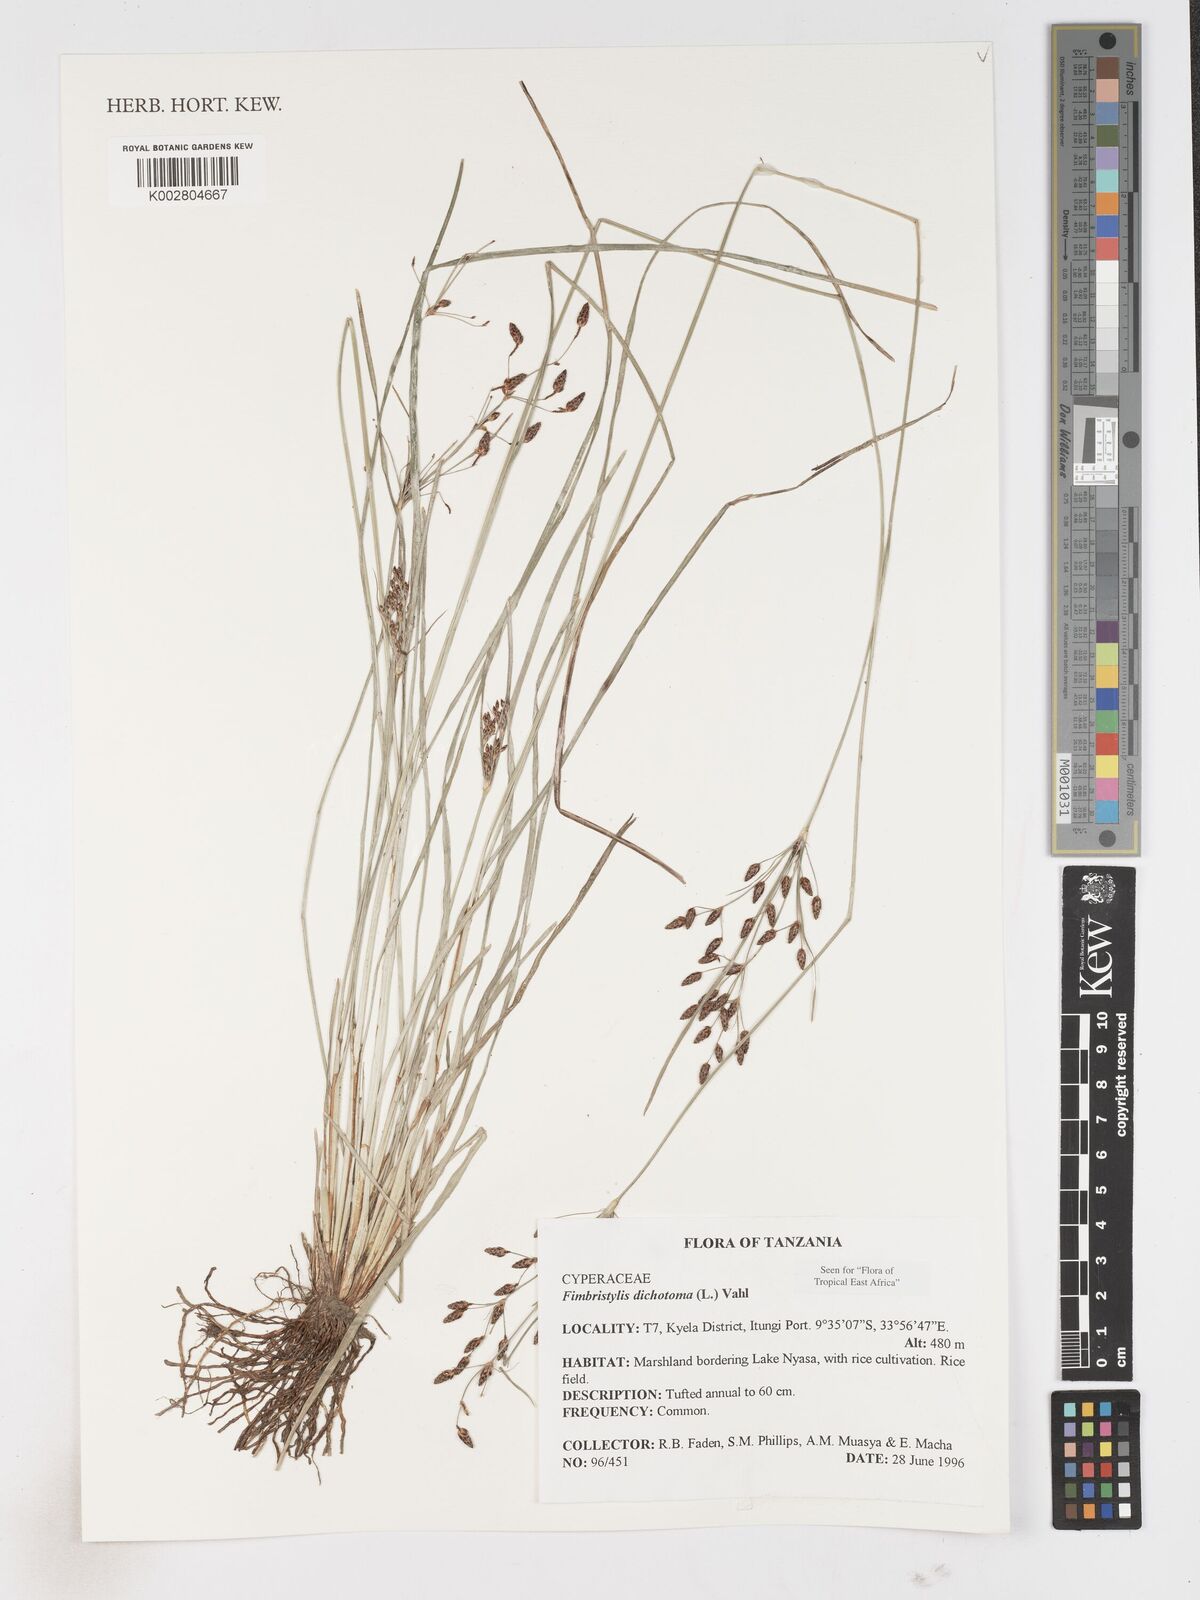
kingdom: Plantae
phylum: Tracheophyta
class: Liliopsida
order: Poales
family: Cyperaceae
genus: Fimbristylis
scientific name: Fimbristylis dichotoma
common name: Forked fimbry
